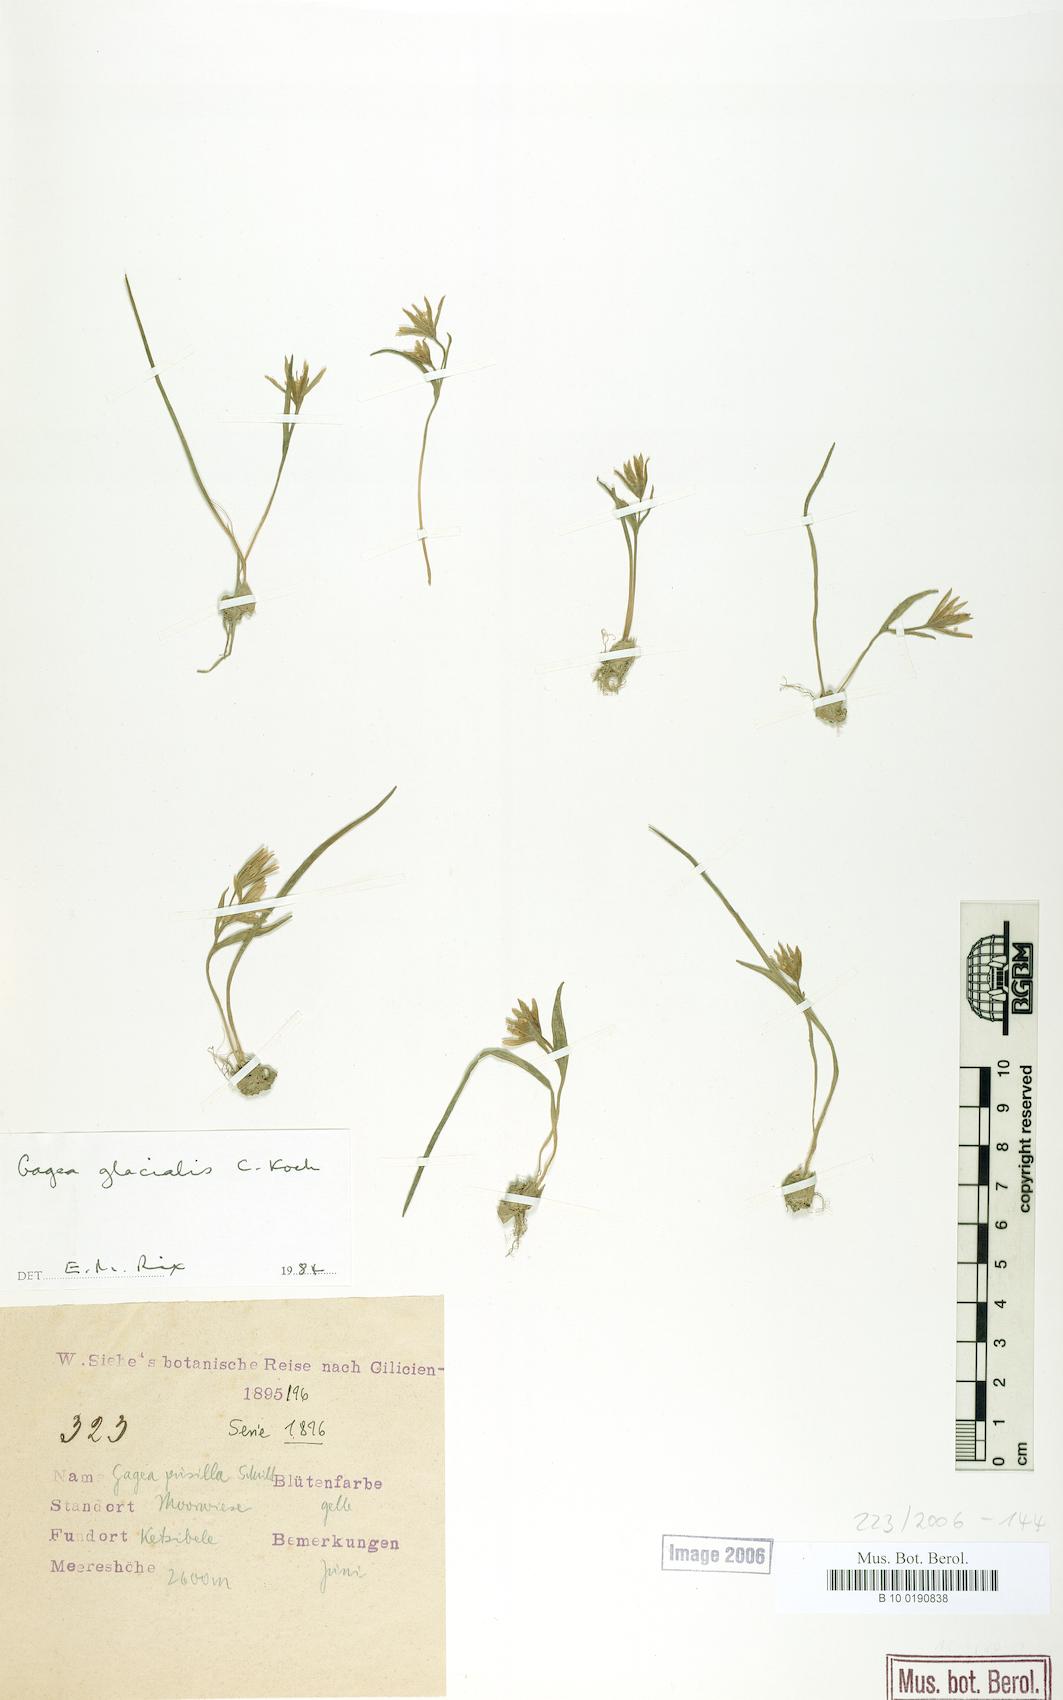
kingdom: Plantae
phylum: Tracheophyta
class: Liliopsida
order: Liliales
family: Liliaceae
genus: Gagea
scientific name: Gagea glacialis
